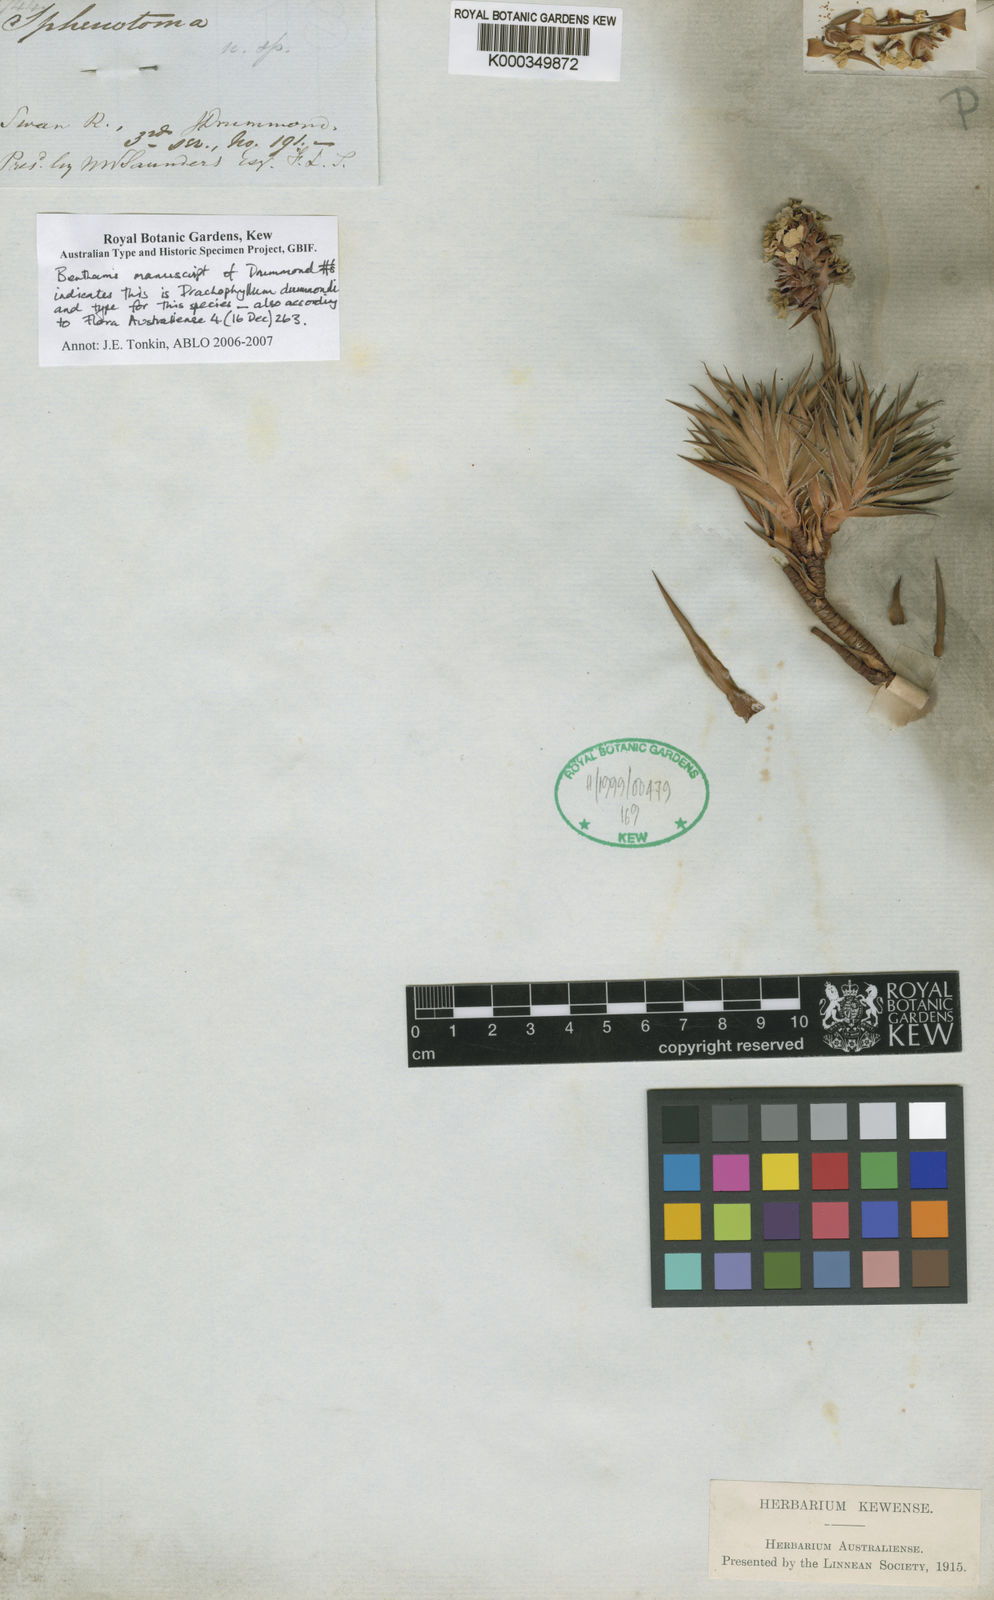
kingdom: Plantae
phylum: Tracheophyta
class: Magnoliopsida
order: Ericales
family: Ericaceae
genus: Sphenotoma
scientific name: Sphenotoma drummondii
